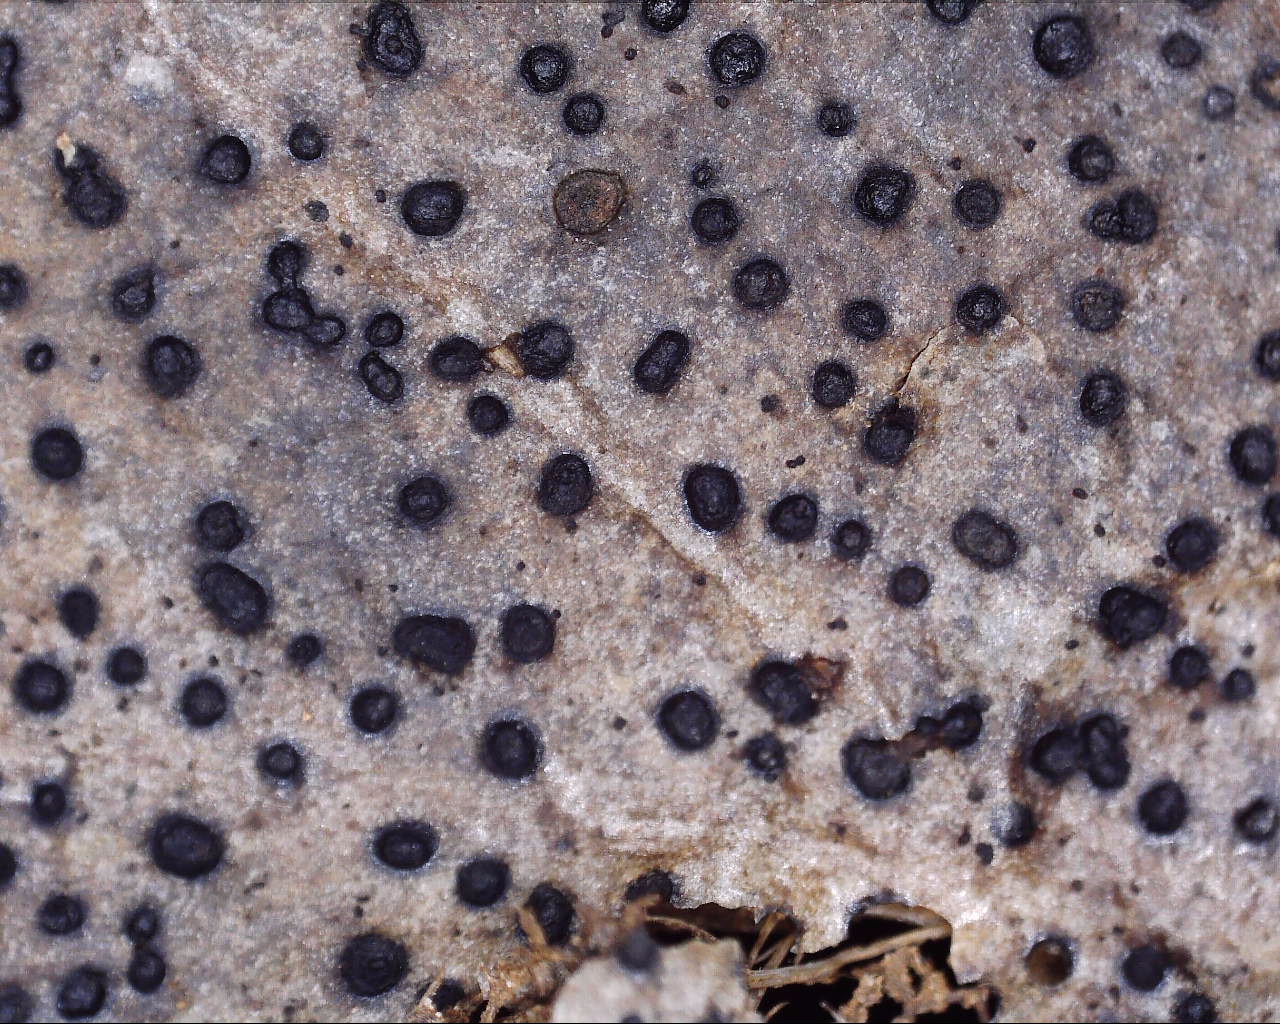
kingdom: Fungi
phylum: Ascomycota
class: Leotiomycetes
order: Helotiales
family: Cenangiaceae
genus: Trochila
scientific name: Trochila ilicina
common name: kristtorn-lågskive
